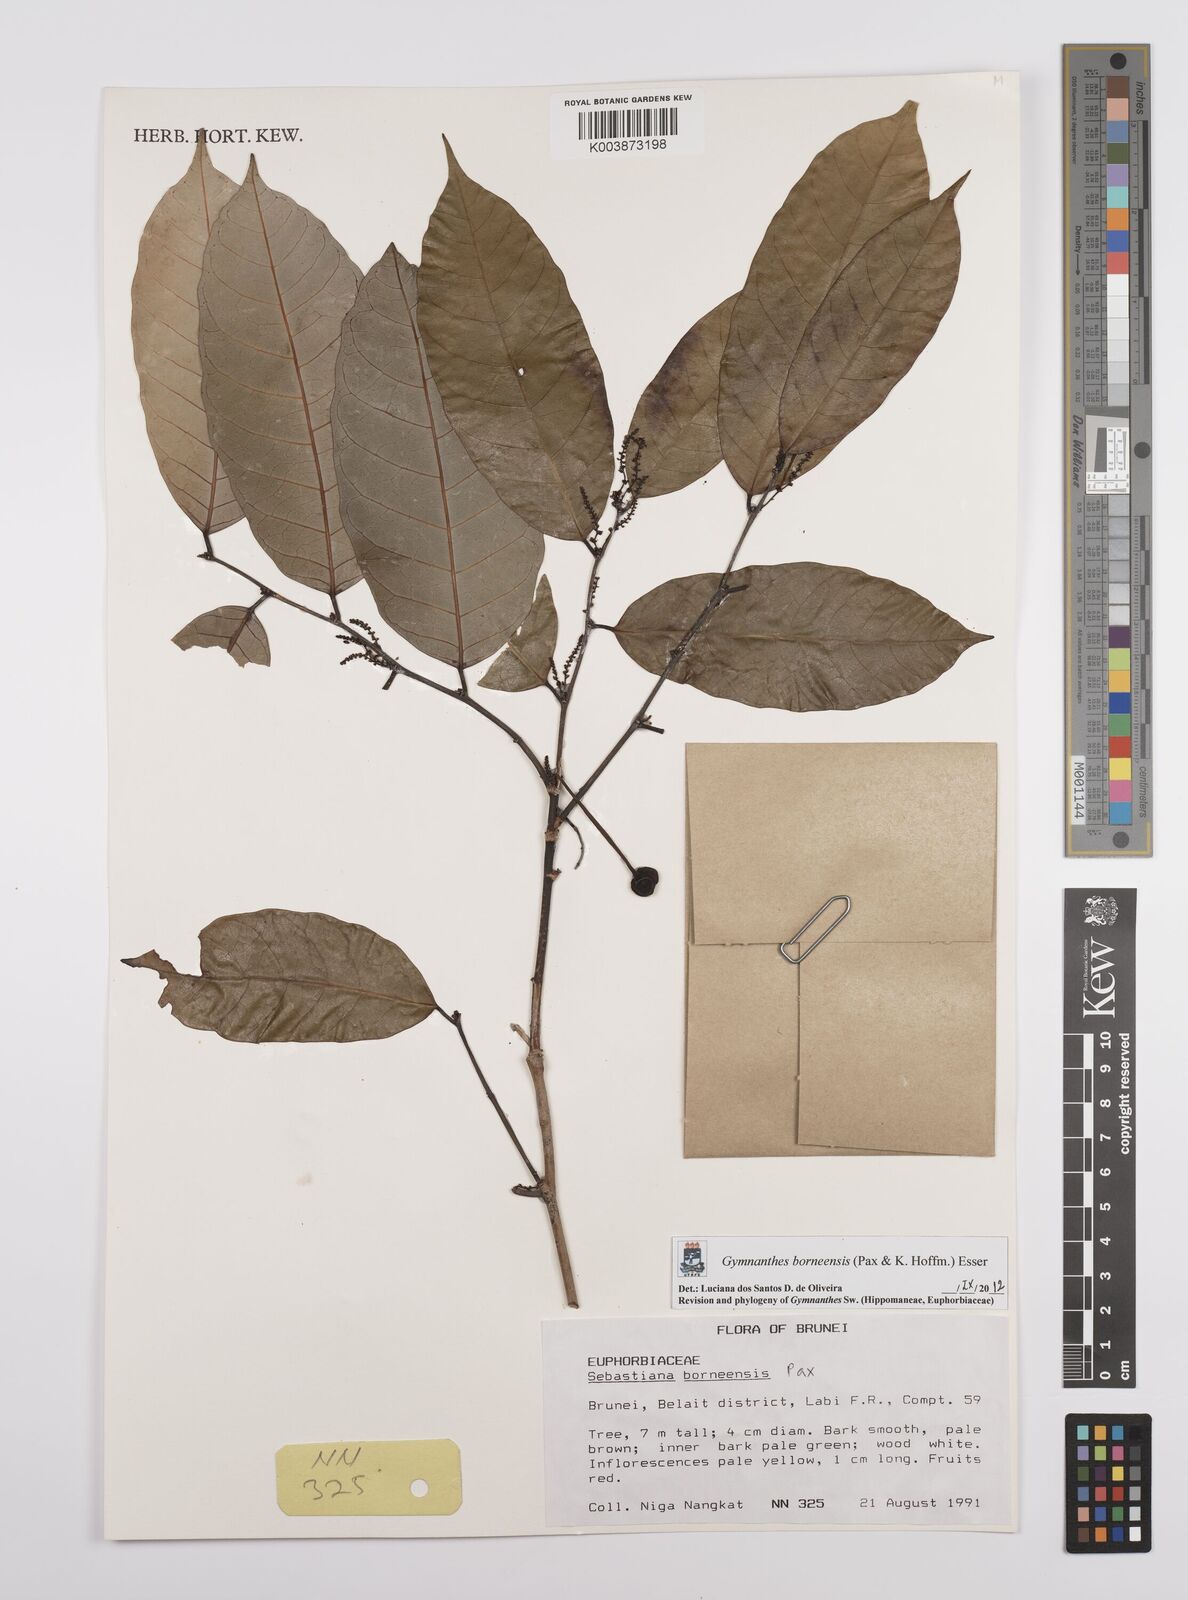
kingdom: Plantae
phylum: Tracheophyta
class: Magnoliopsida
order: Malpighiales
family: Euphorbiaceae
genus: Gymnanthes
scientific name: Gymnanthes borneensis
